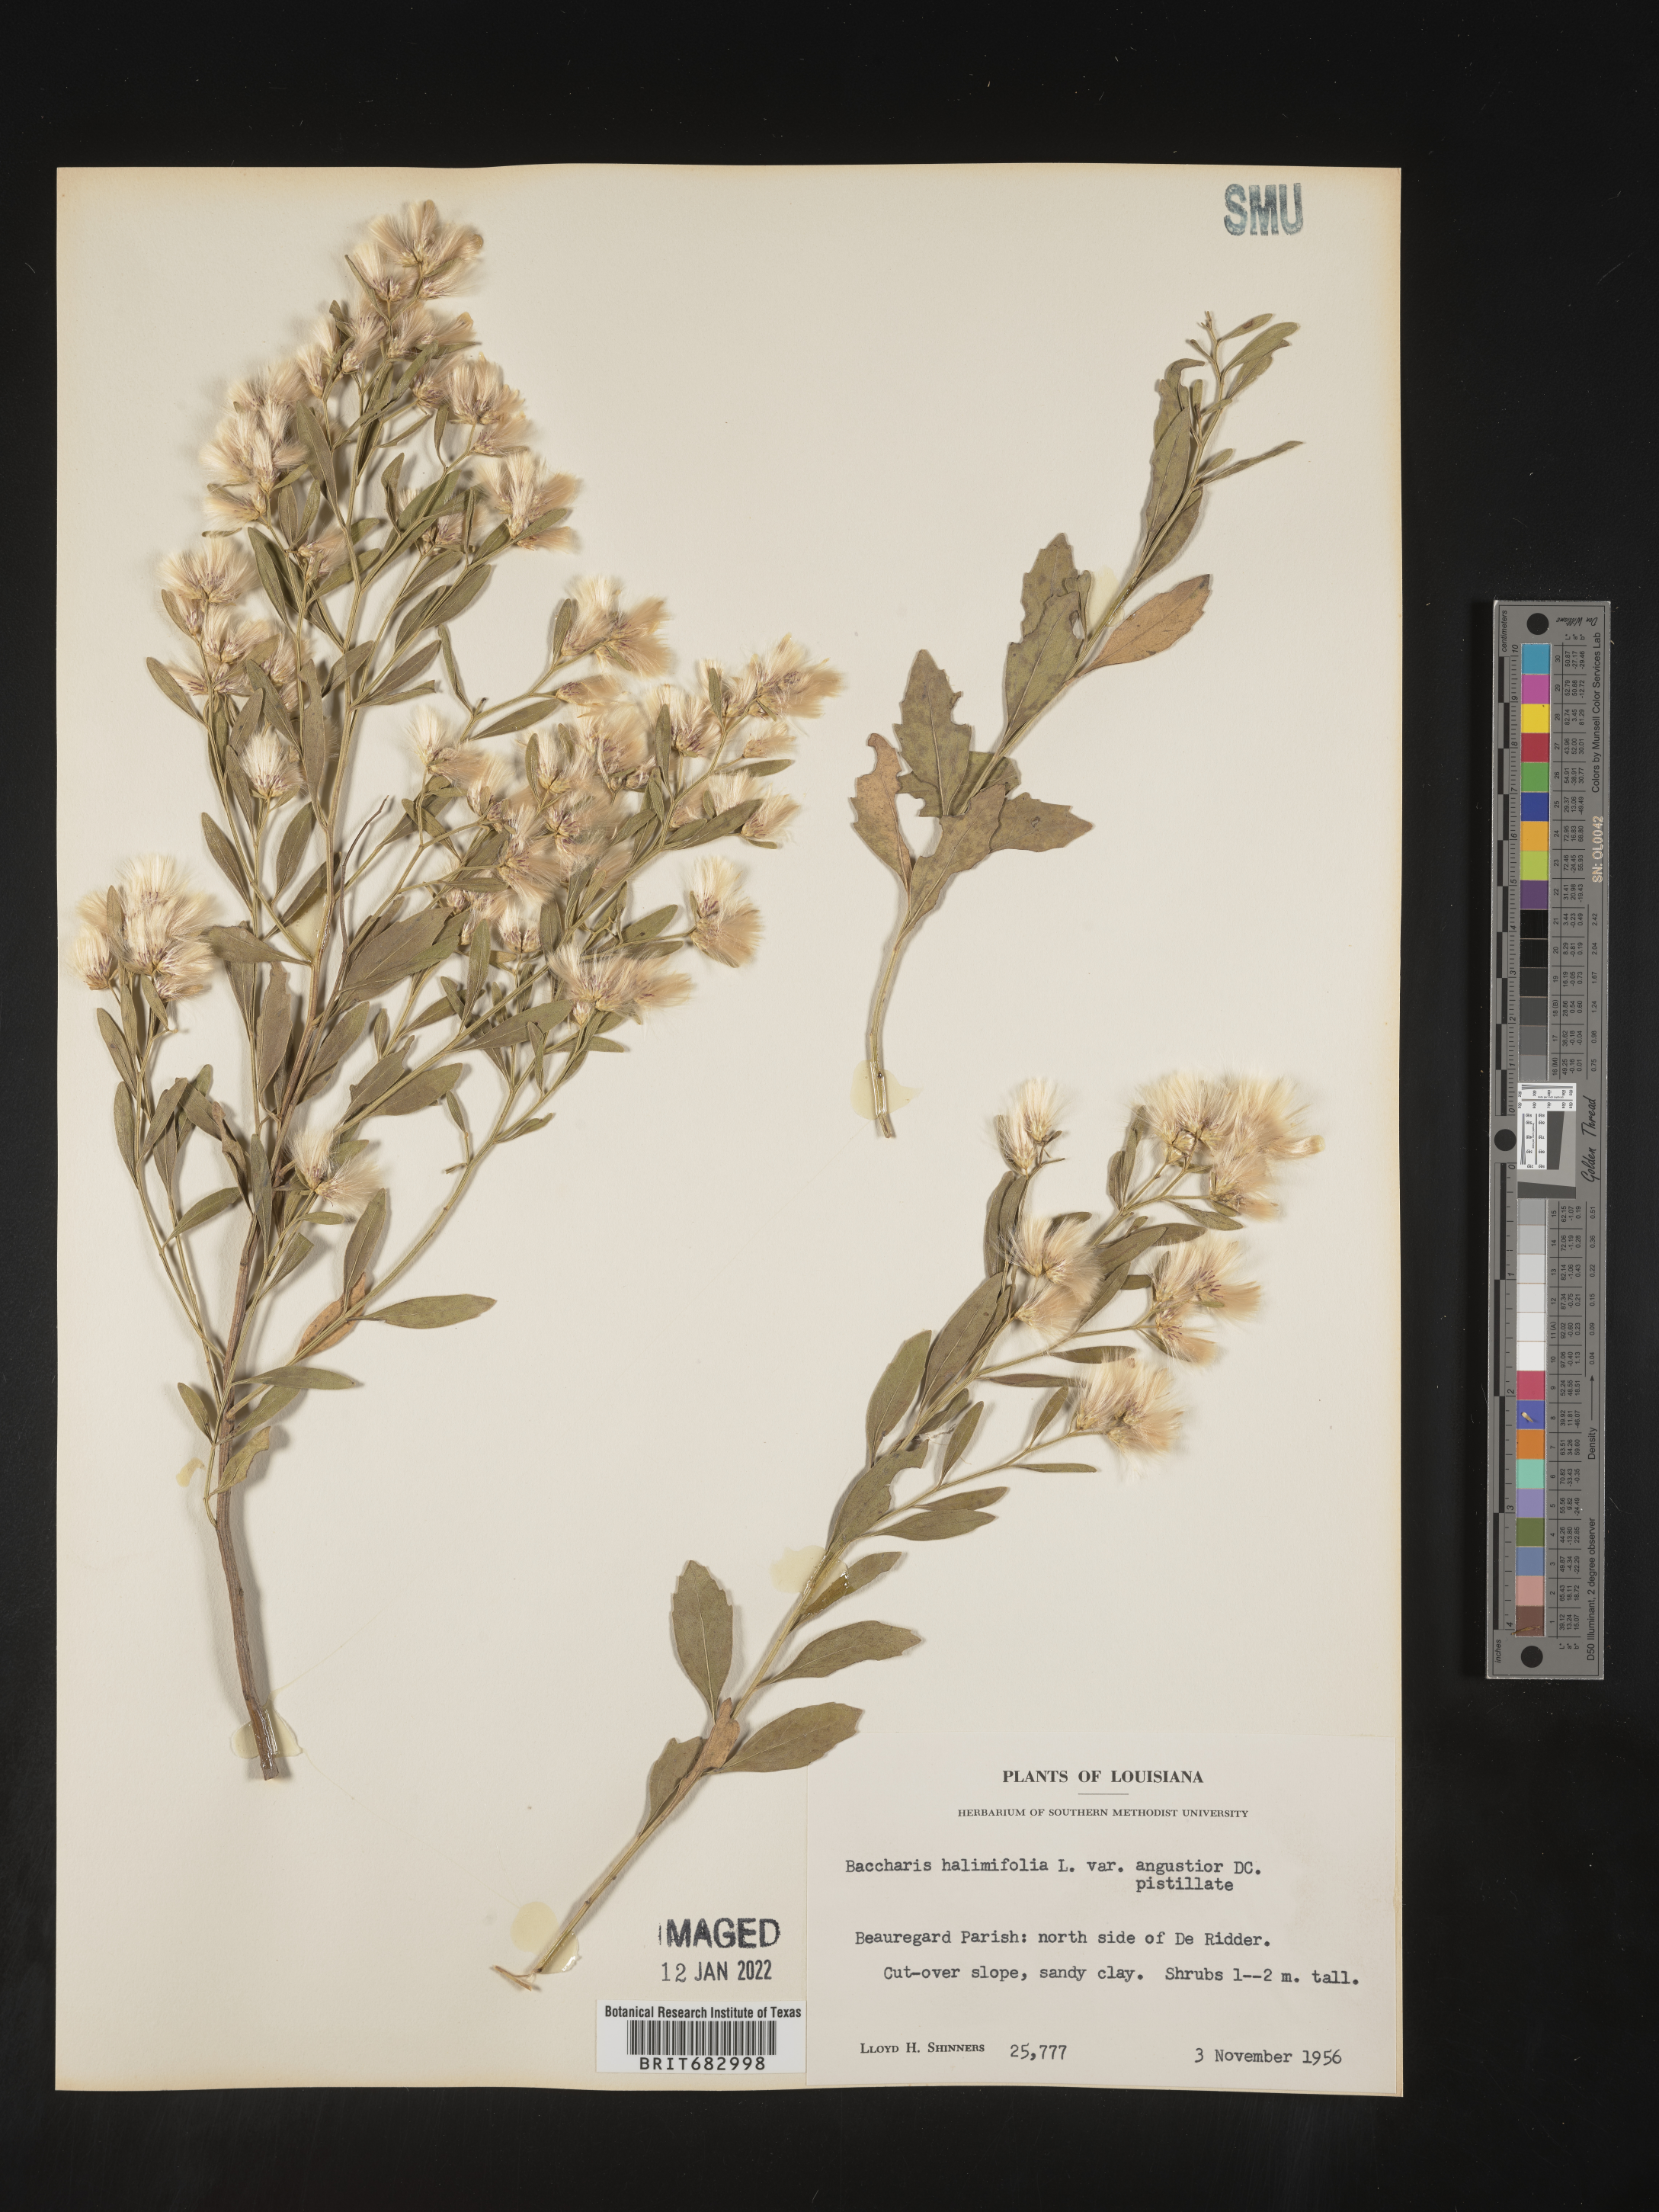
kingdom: Plantae
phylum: Tracheophyta
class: Magnoliopsida
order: Asterales
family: Asteraceae
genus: Nidorella
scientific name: Nidorella ivifolia
